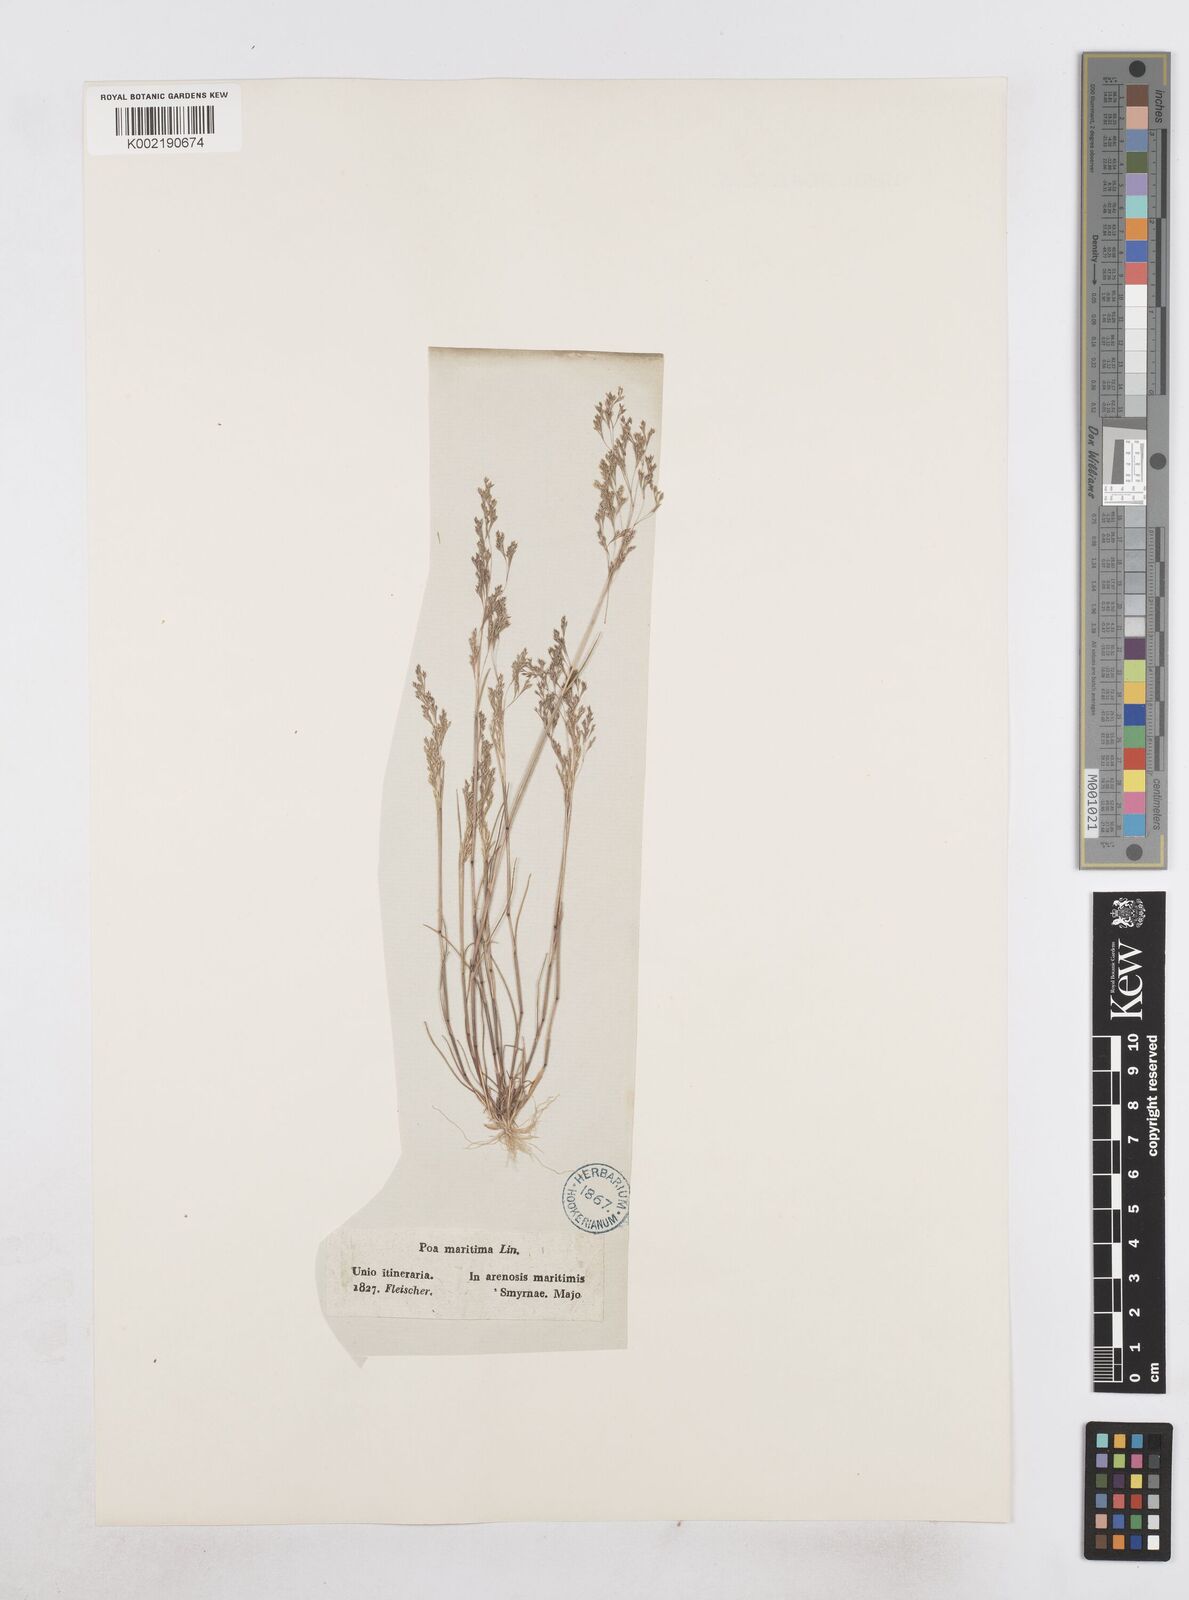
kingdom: Plantae
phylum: Tracheophyta
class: Liliopsida
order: Poales
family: Poaceae
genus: Sphenopus
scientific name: Sphenopus divaricatus
